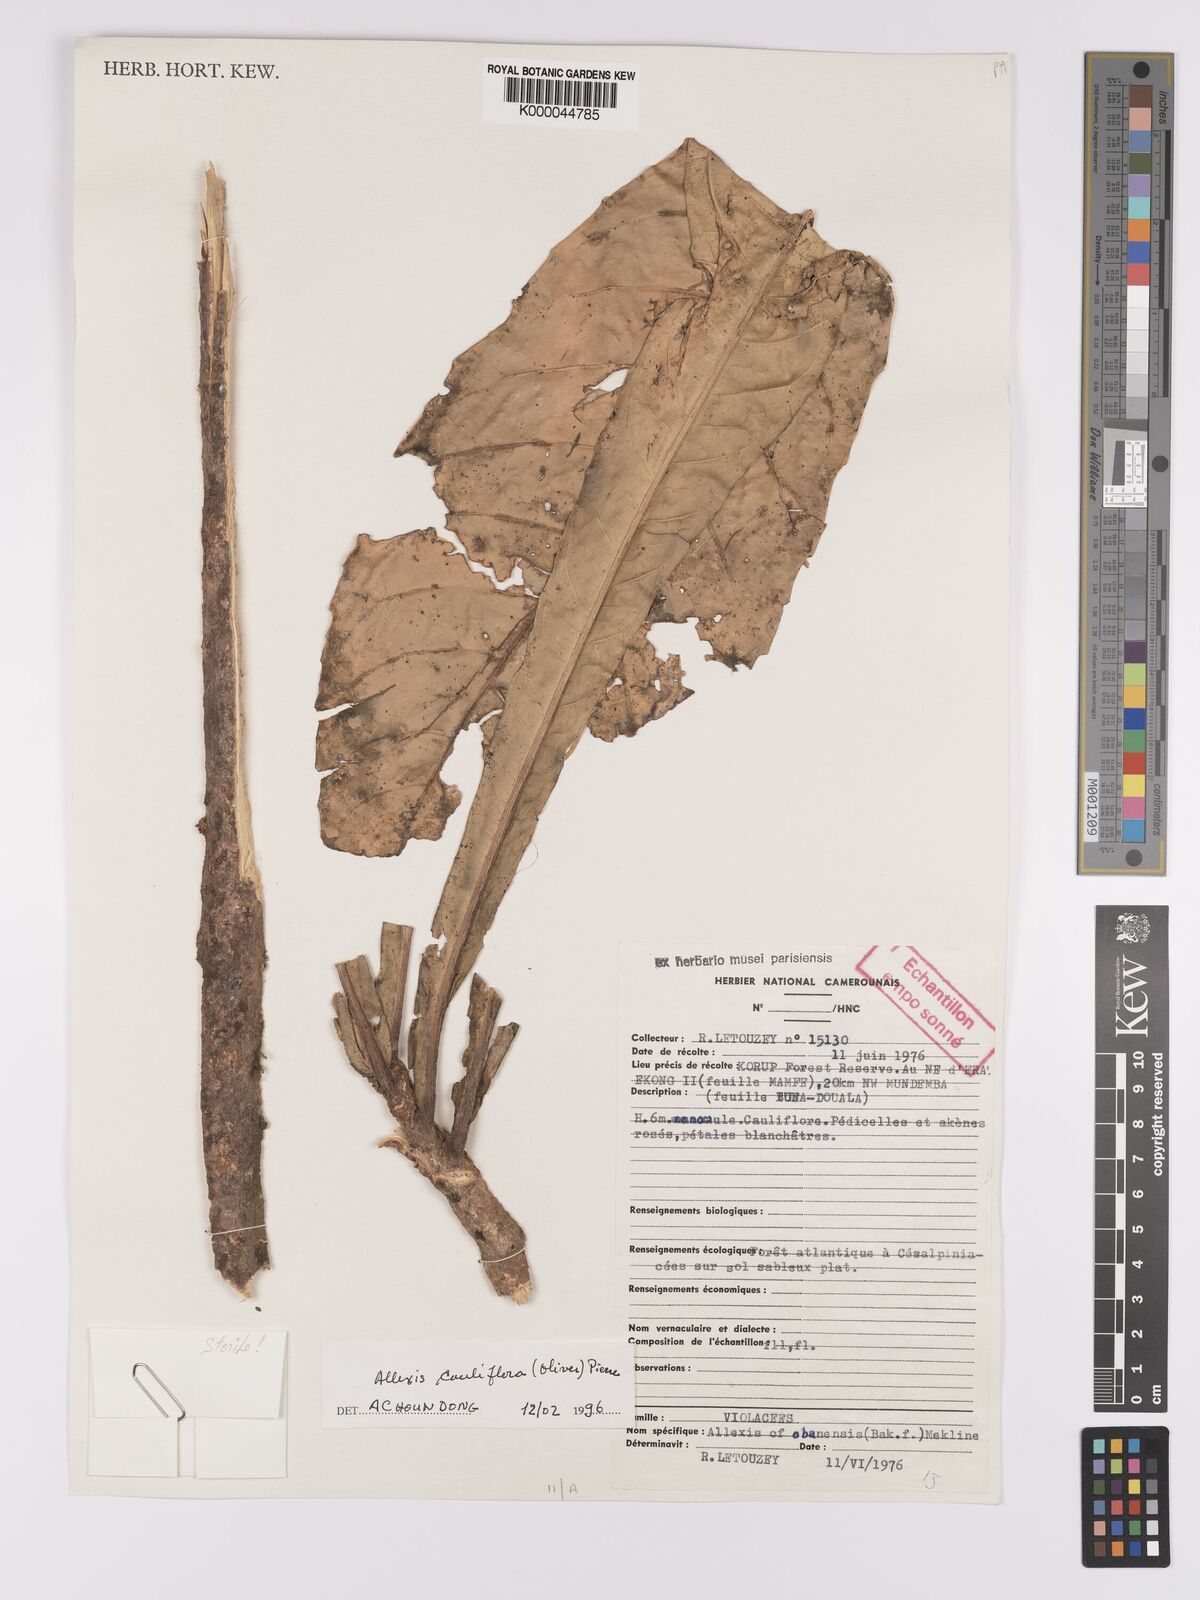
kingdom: Plantae
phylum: Tracheophyta
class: Magnoliopsida
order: Malpighiales
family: Violaceae
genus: Allexis
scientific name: Allexis cauliflora
